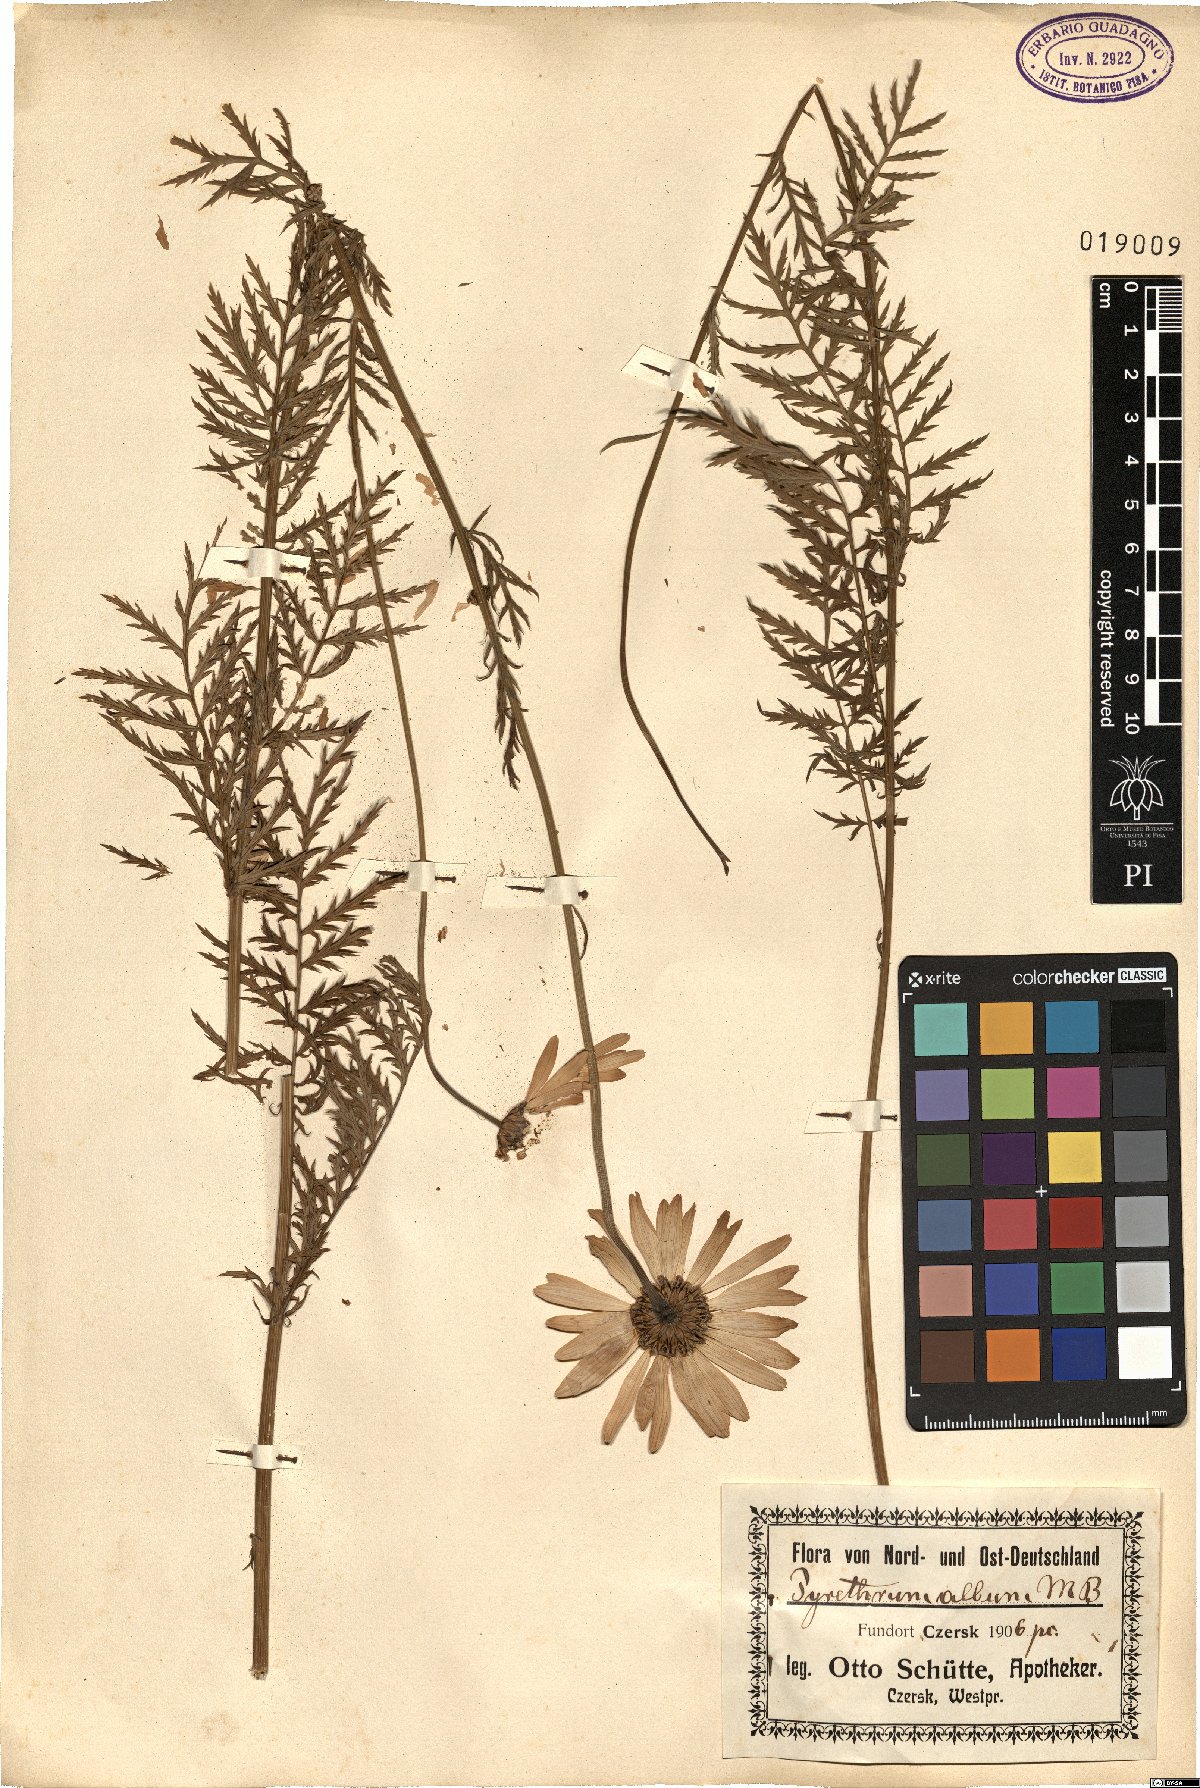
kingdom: Plantae
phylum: Tracheophyta
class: Magnoliopsida
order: Asterales
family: Asteraceae
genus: Leucanthemum
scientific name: Leucanthemum coronopifolium
